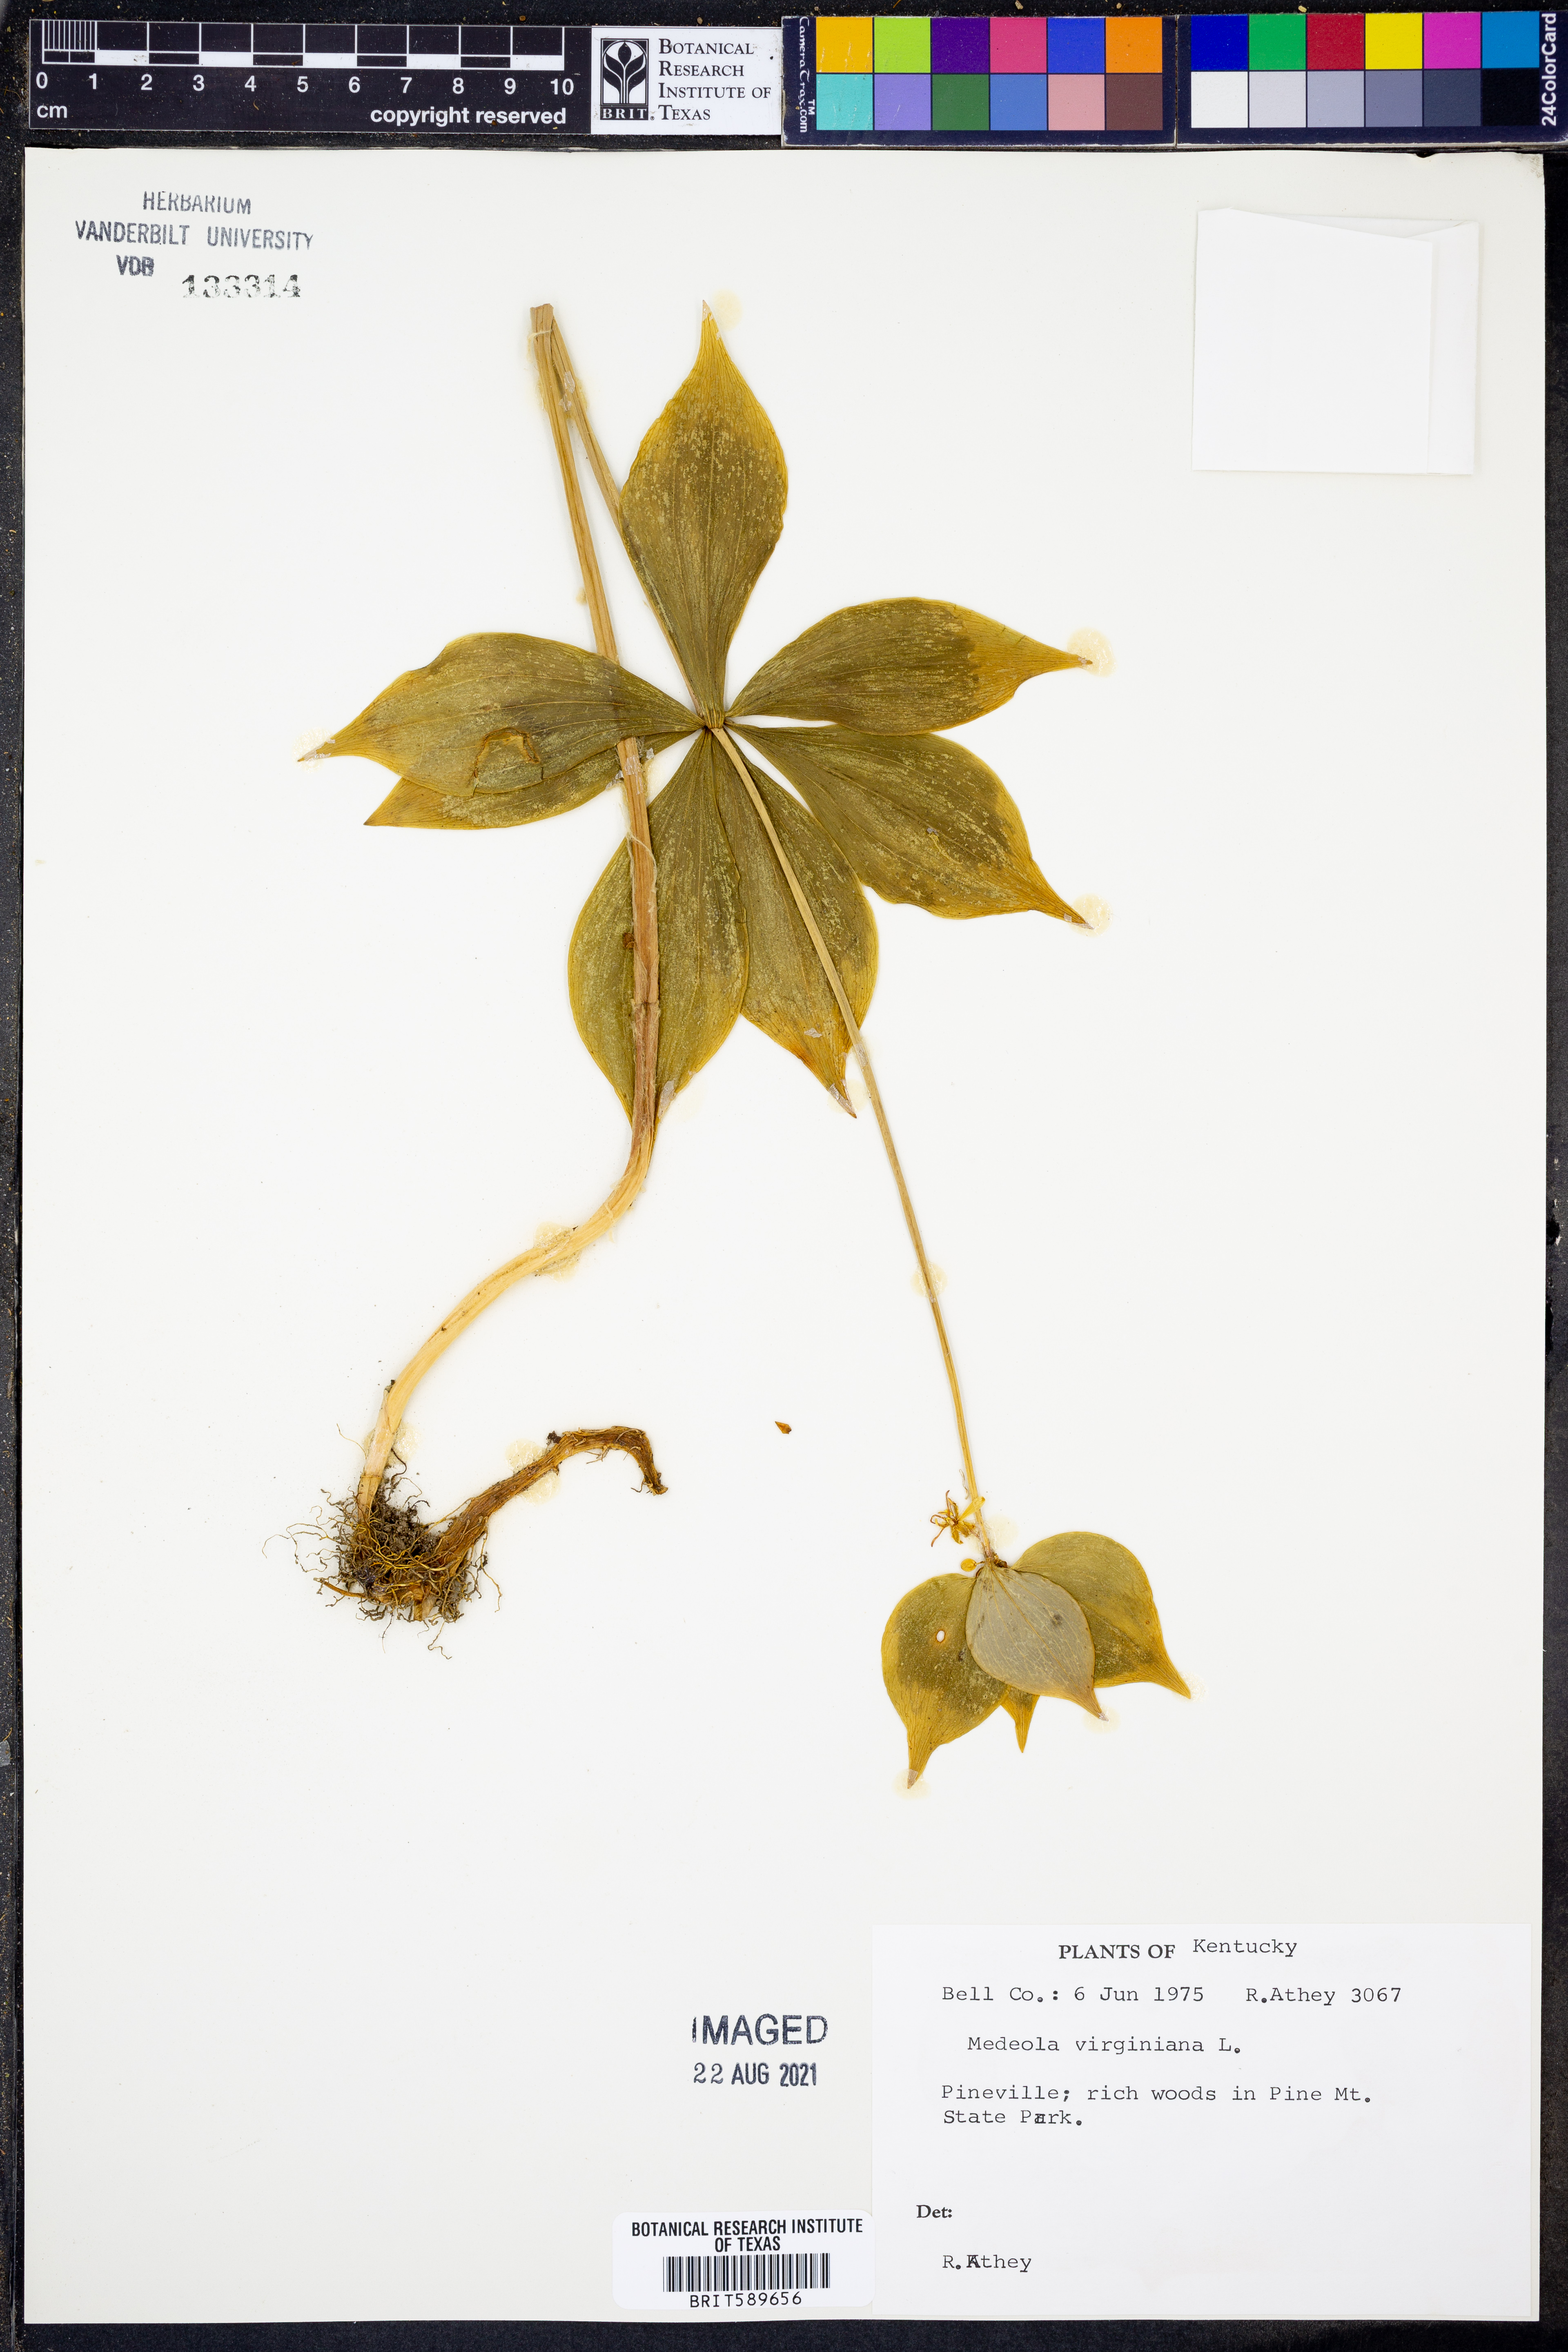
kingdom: Plantae
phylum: Tracheophyta
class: Liliopsida
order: Liliales
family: Liliaceae
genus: Medeola
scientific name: Medeola virginiana
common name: Indian cucumber-root
